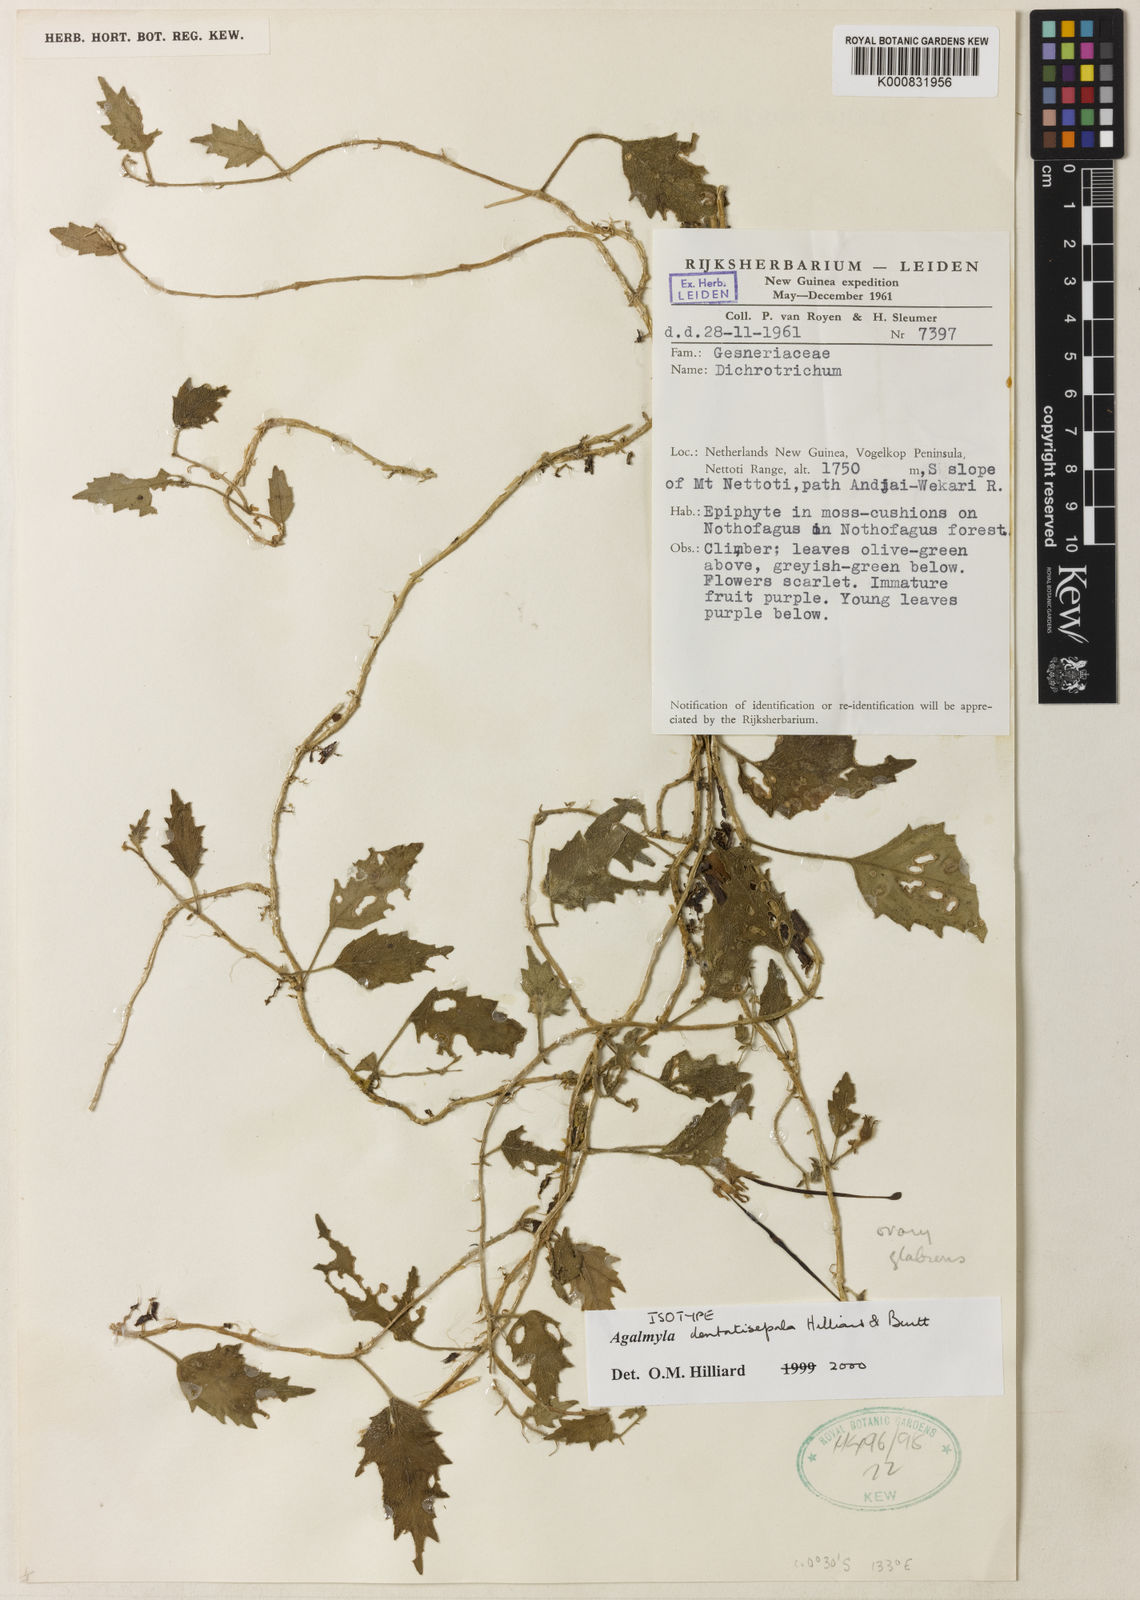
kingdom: Plantae
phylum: Tracheophyta
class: Magnoliopsida
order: Lamiales
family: Gesneriaceae
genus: Agalmyla
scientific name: Agalmyla dentatisepala
